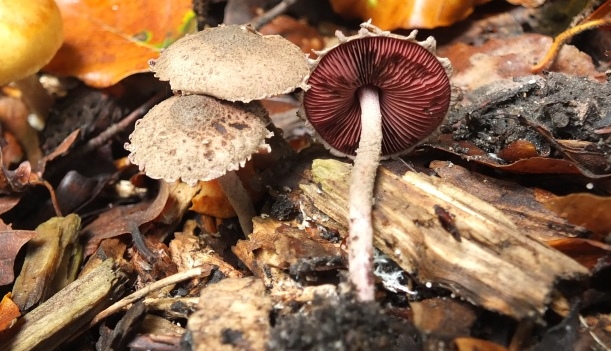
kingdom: Fungi
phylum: Basidiomycota
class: Agaricomycetes
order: Agaricales
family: Agaricaceae
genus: Melanophyllum
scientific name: Melanophyllum haematospermum
